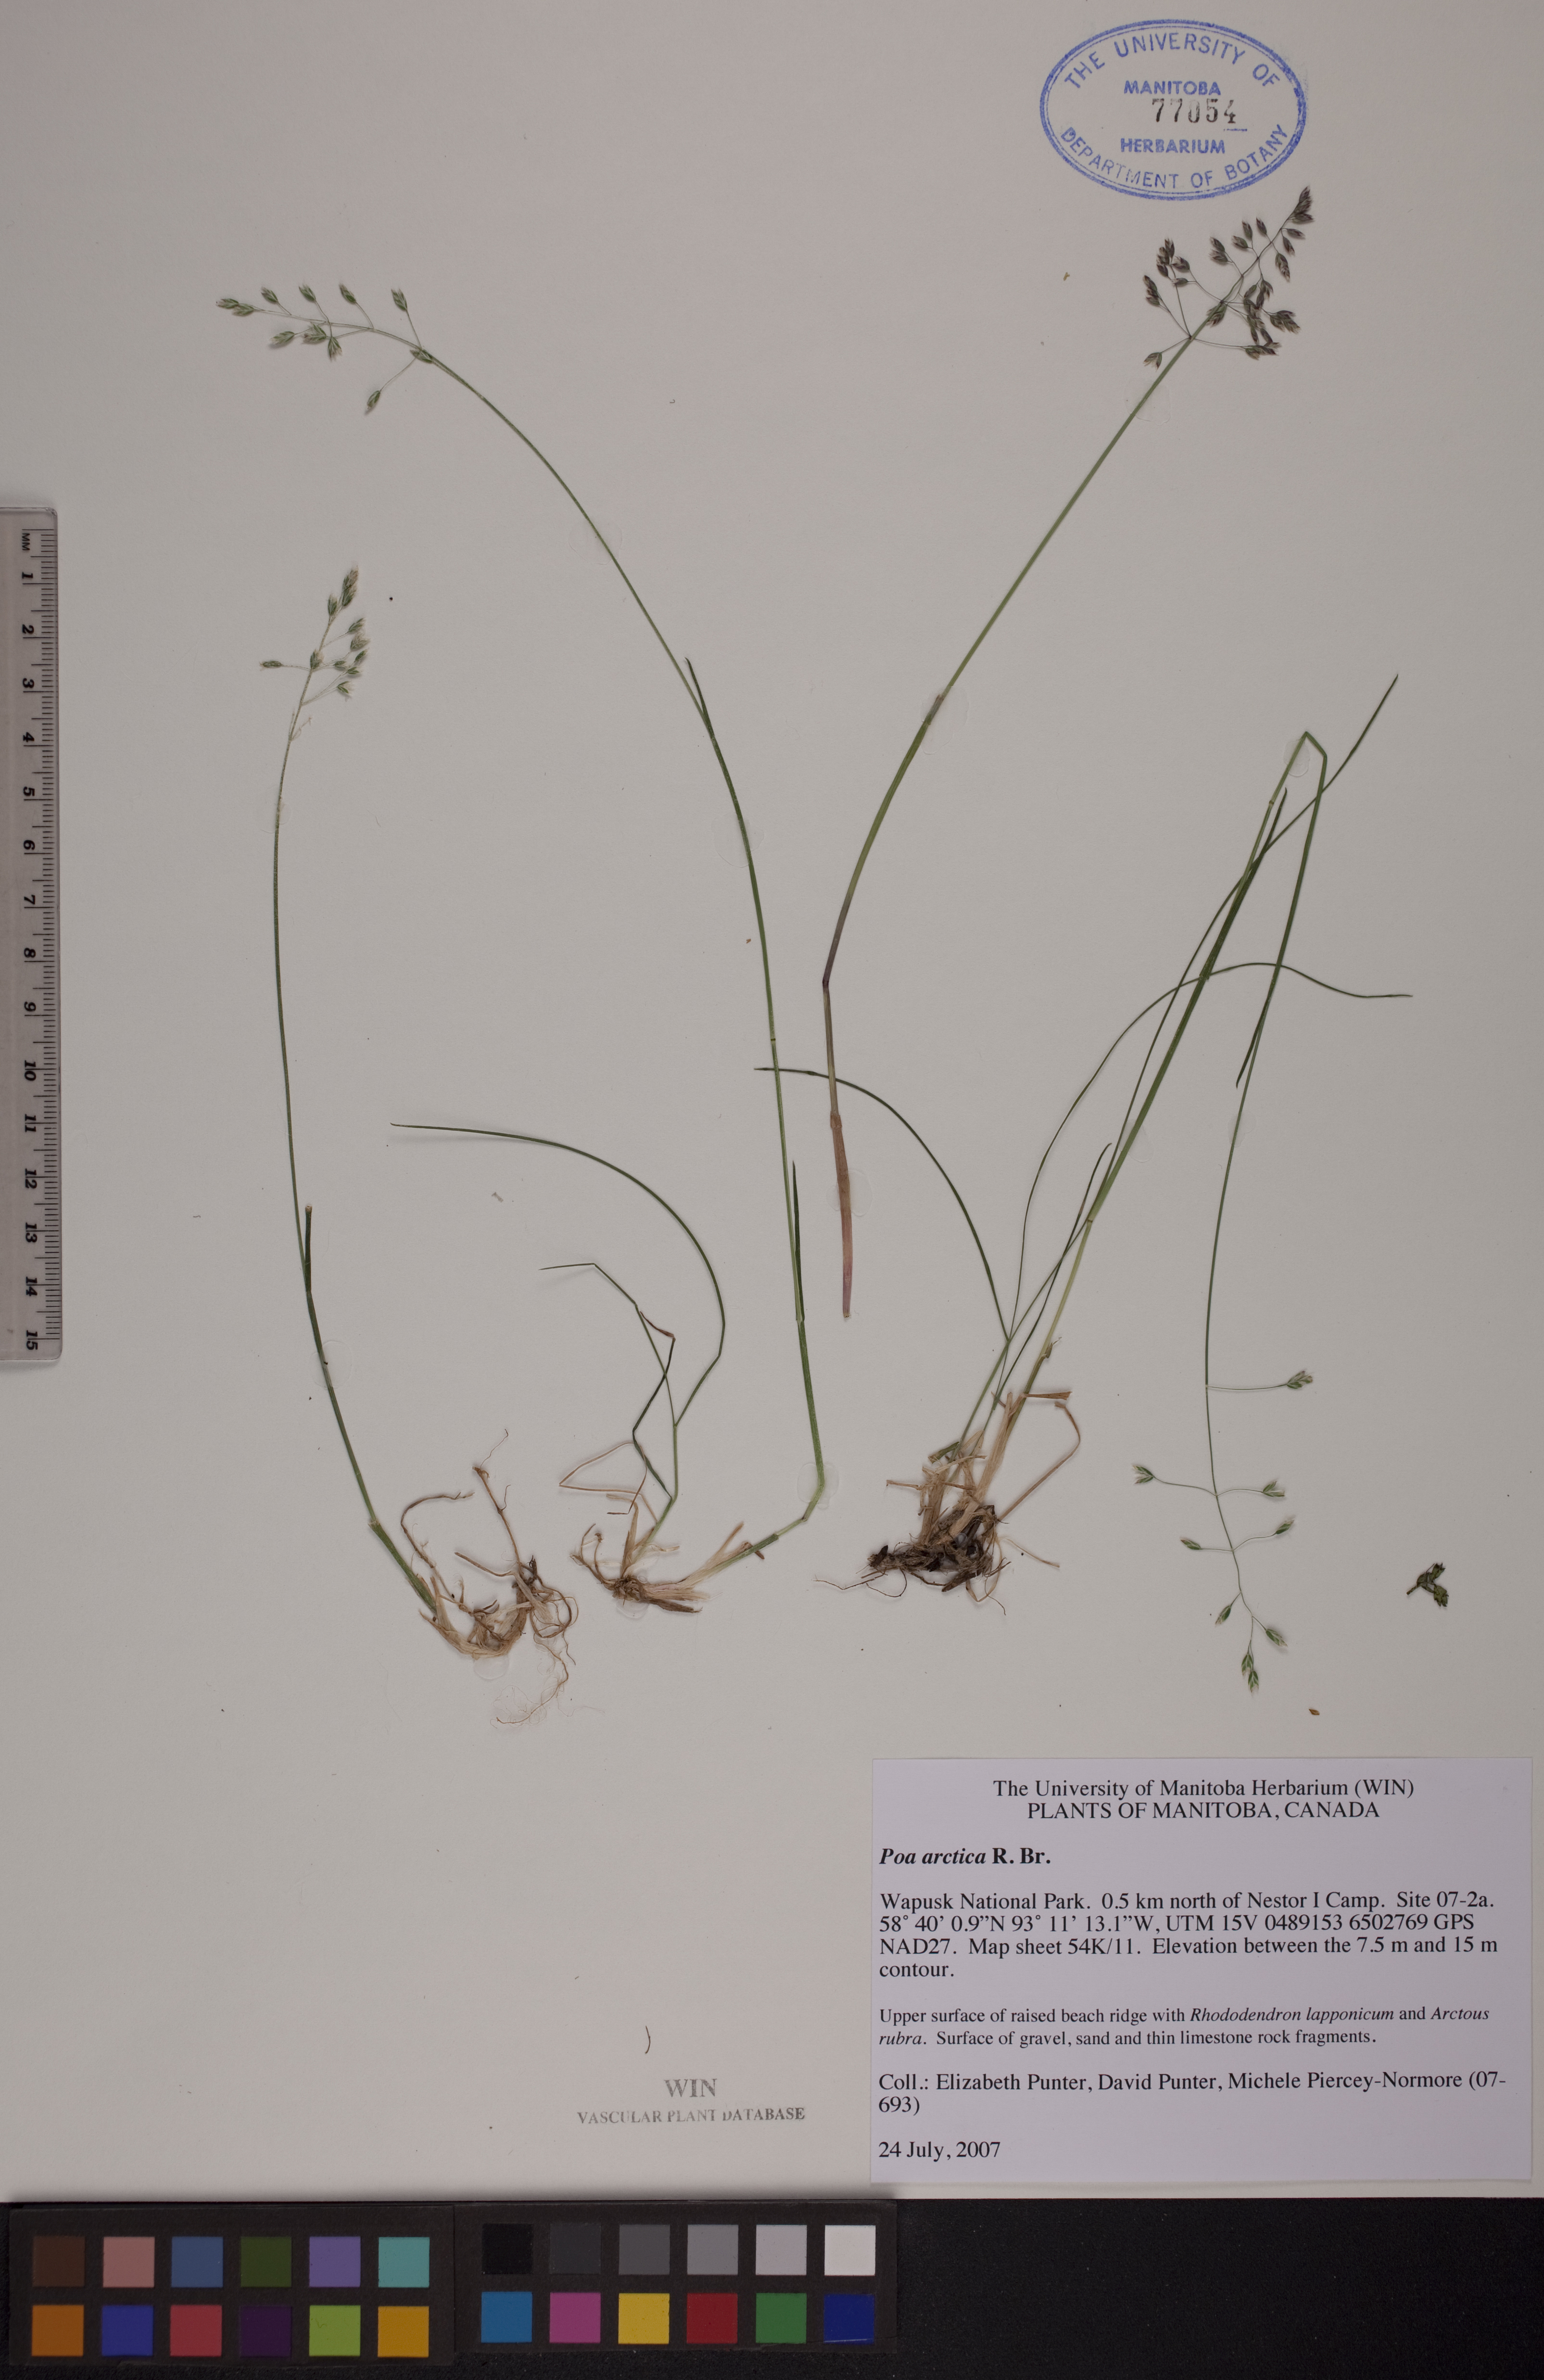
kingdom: Plantae
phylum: Tracheophyta
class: Liliopsida
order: Poales
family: Poaceae
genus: Poa
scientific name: Poa arctica
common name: Arctic bluegrass
